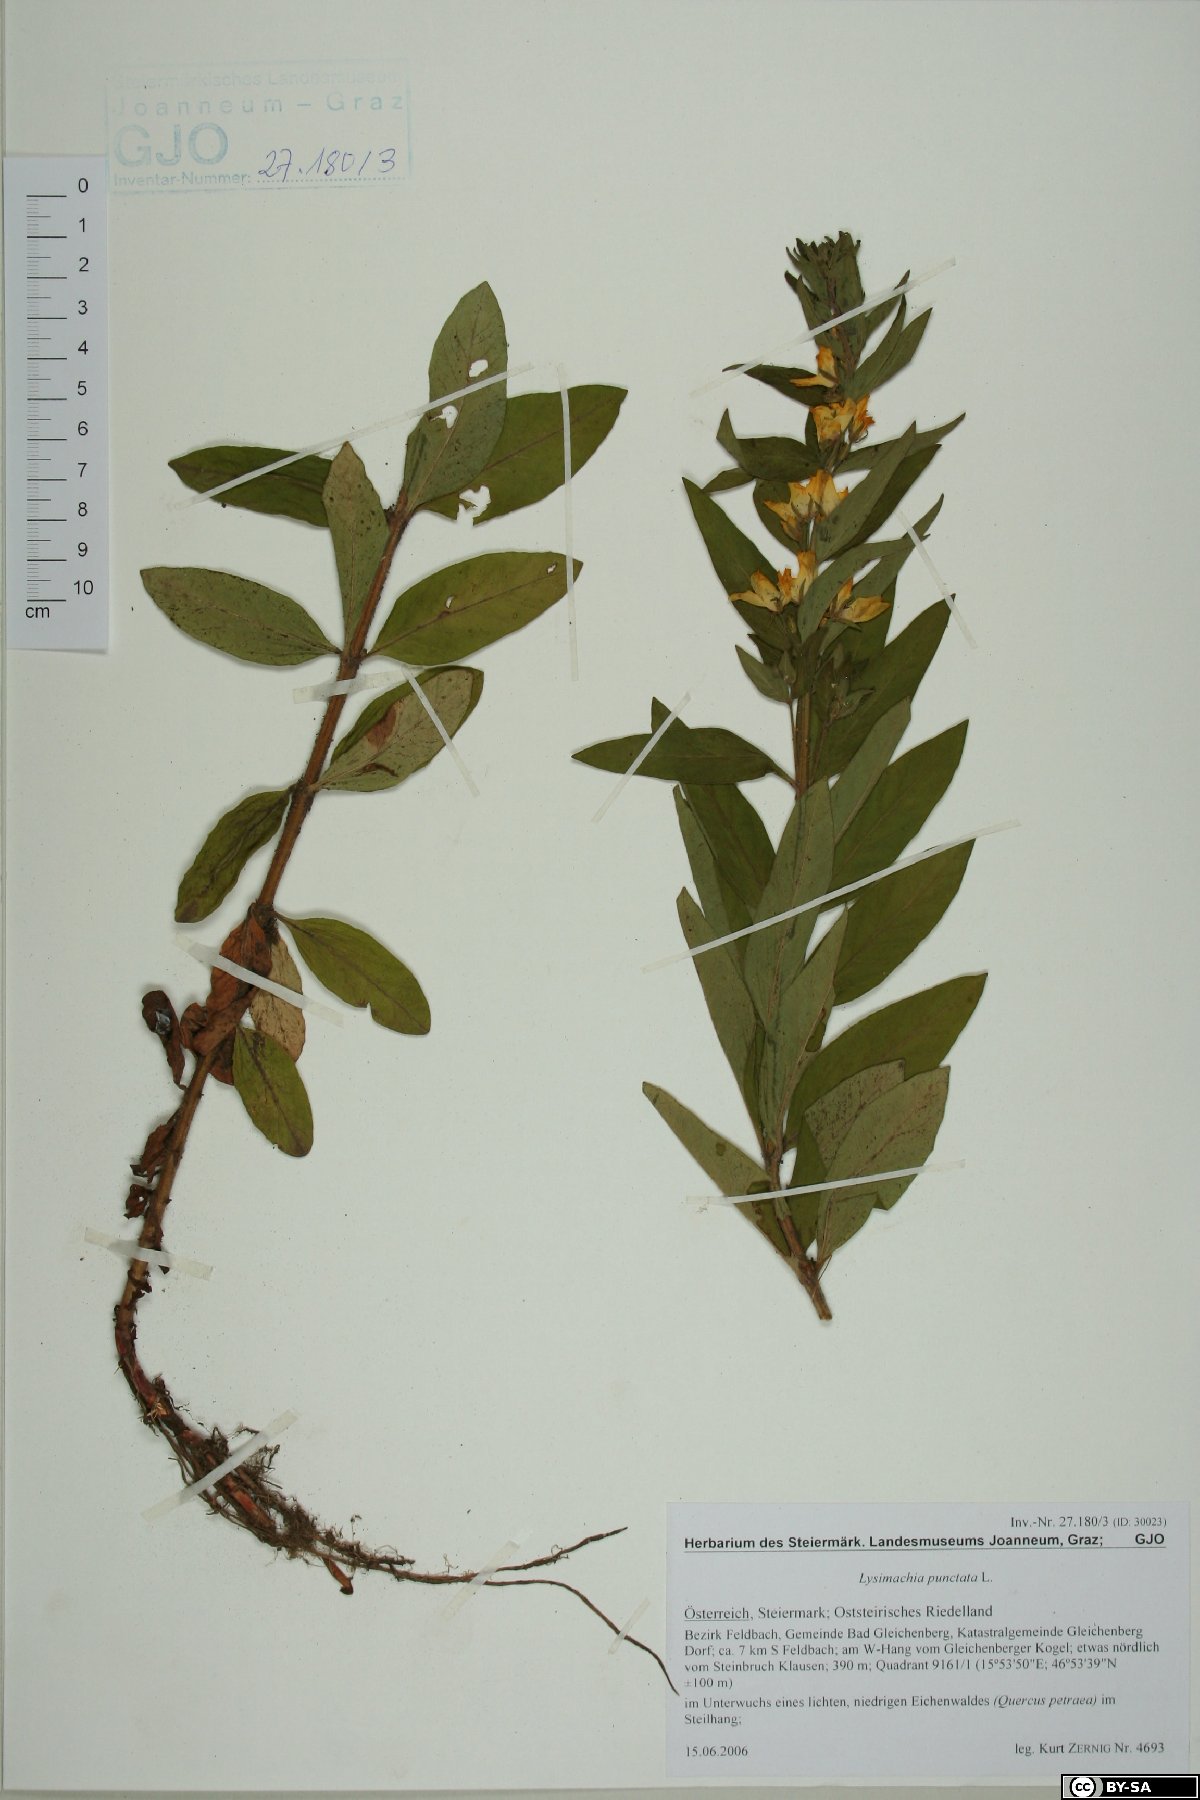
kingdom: Plantae
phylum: Tracheophyta
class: Magnoliopsida
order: Ericales
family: Primulaceae
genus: Lysimachia
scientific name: Lysimachia punctata
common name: Dotted loosestrife
